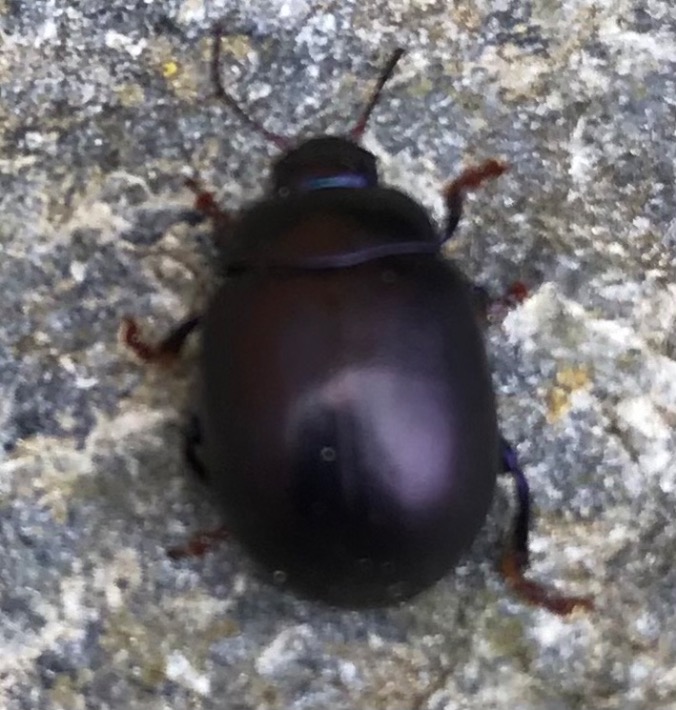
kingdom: Animalia
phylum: Arthropoda
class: Insecta
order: Coleoptera
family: Chrysomelidae
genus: Chrysolina
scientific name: Chrysolina sturmi
